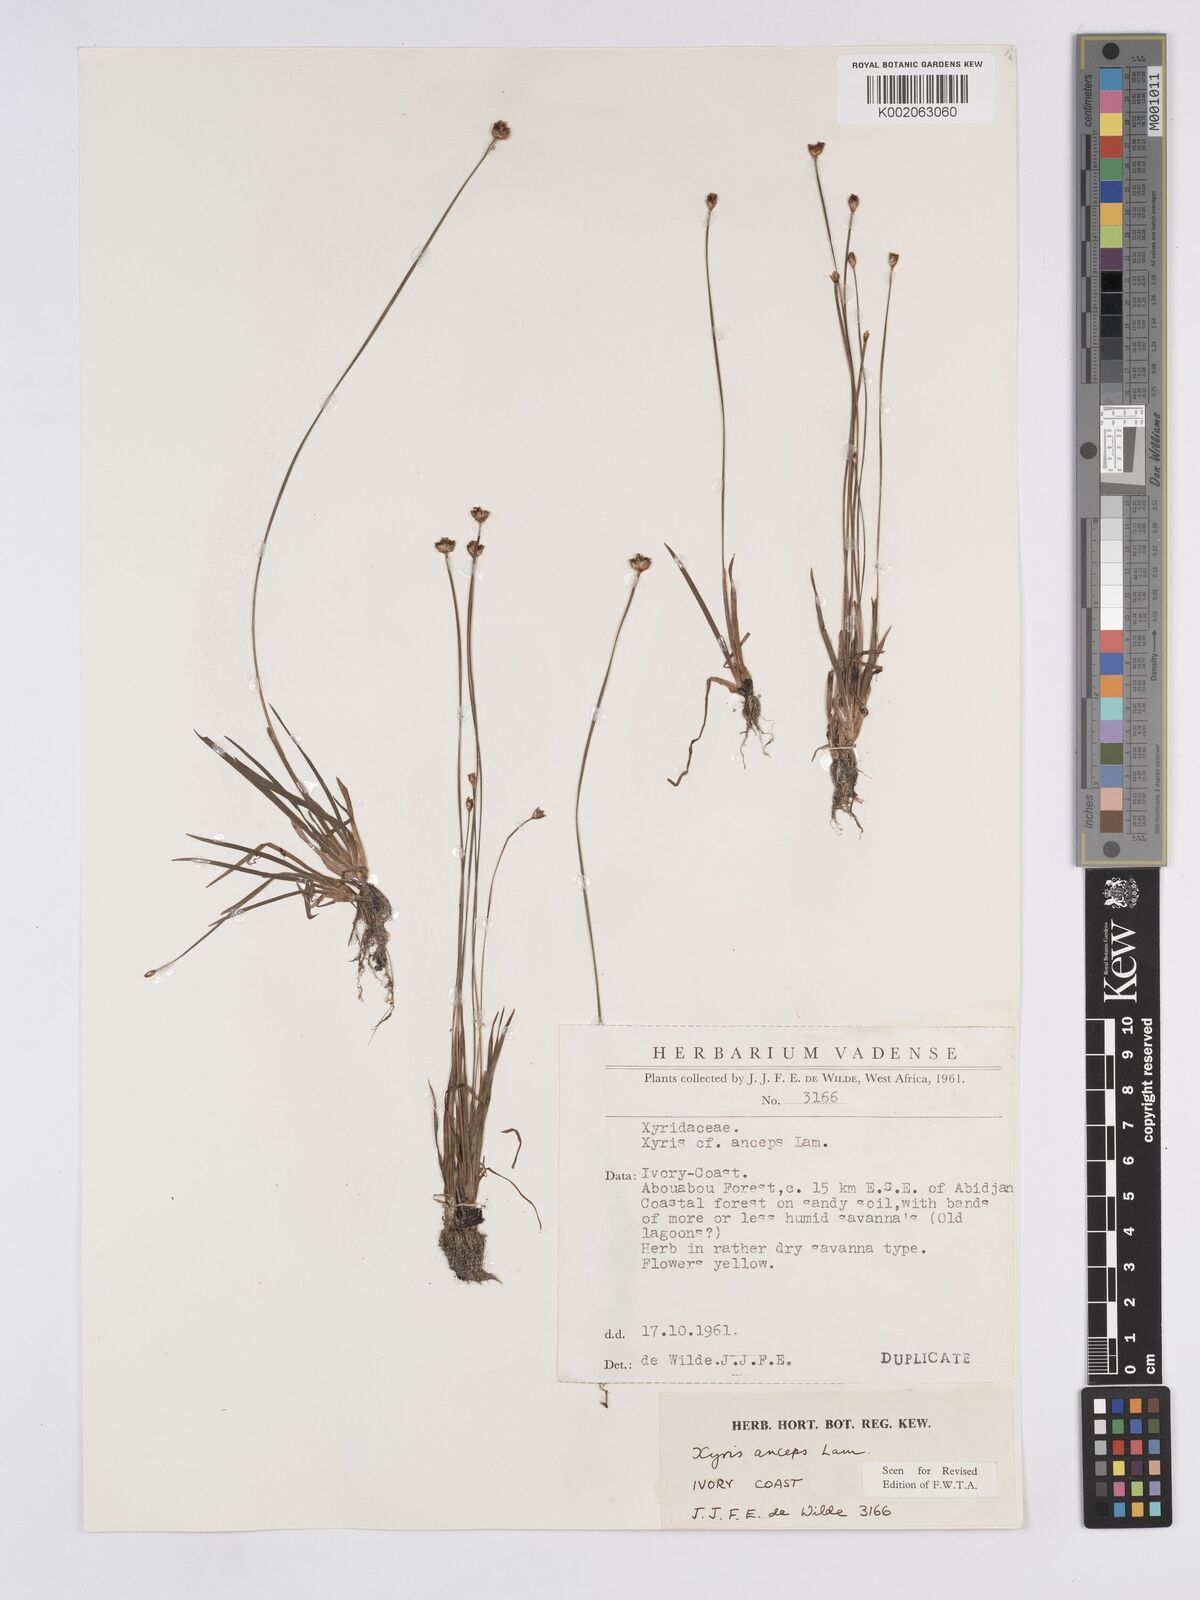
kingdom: Plantae
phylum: Tracheophyta
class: Liliopsida
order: Poales
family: Xyridaceae
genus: Xyris
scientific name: Xyris anceps
